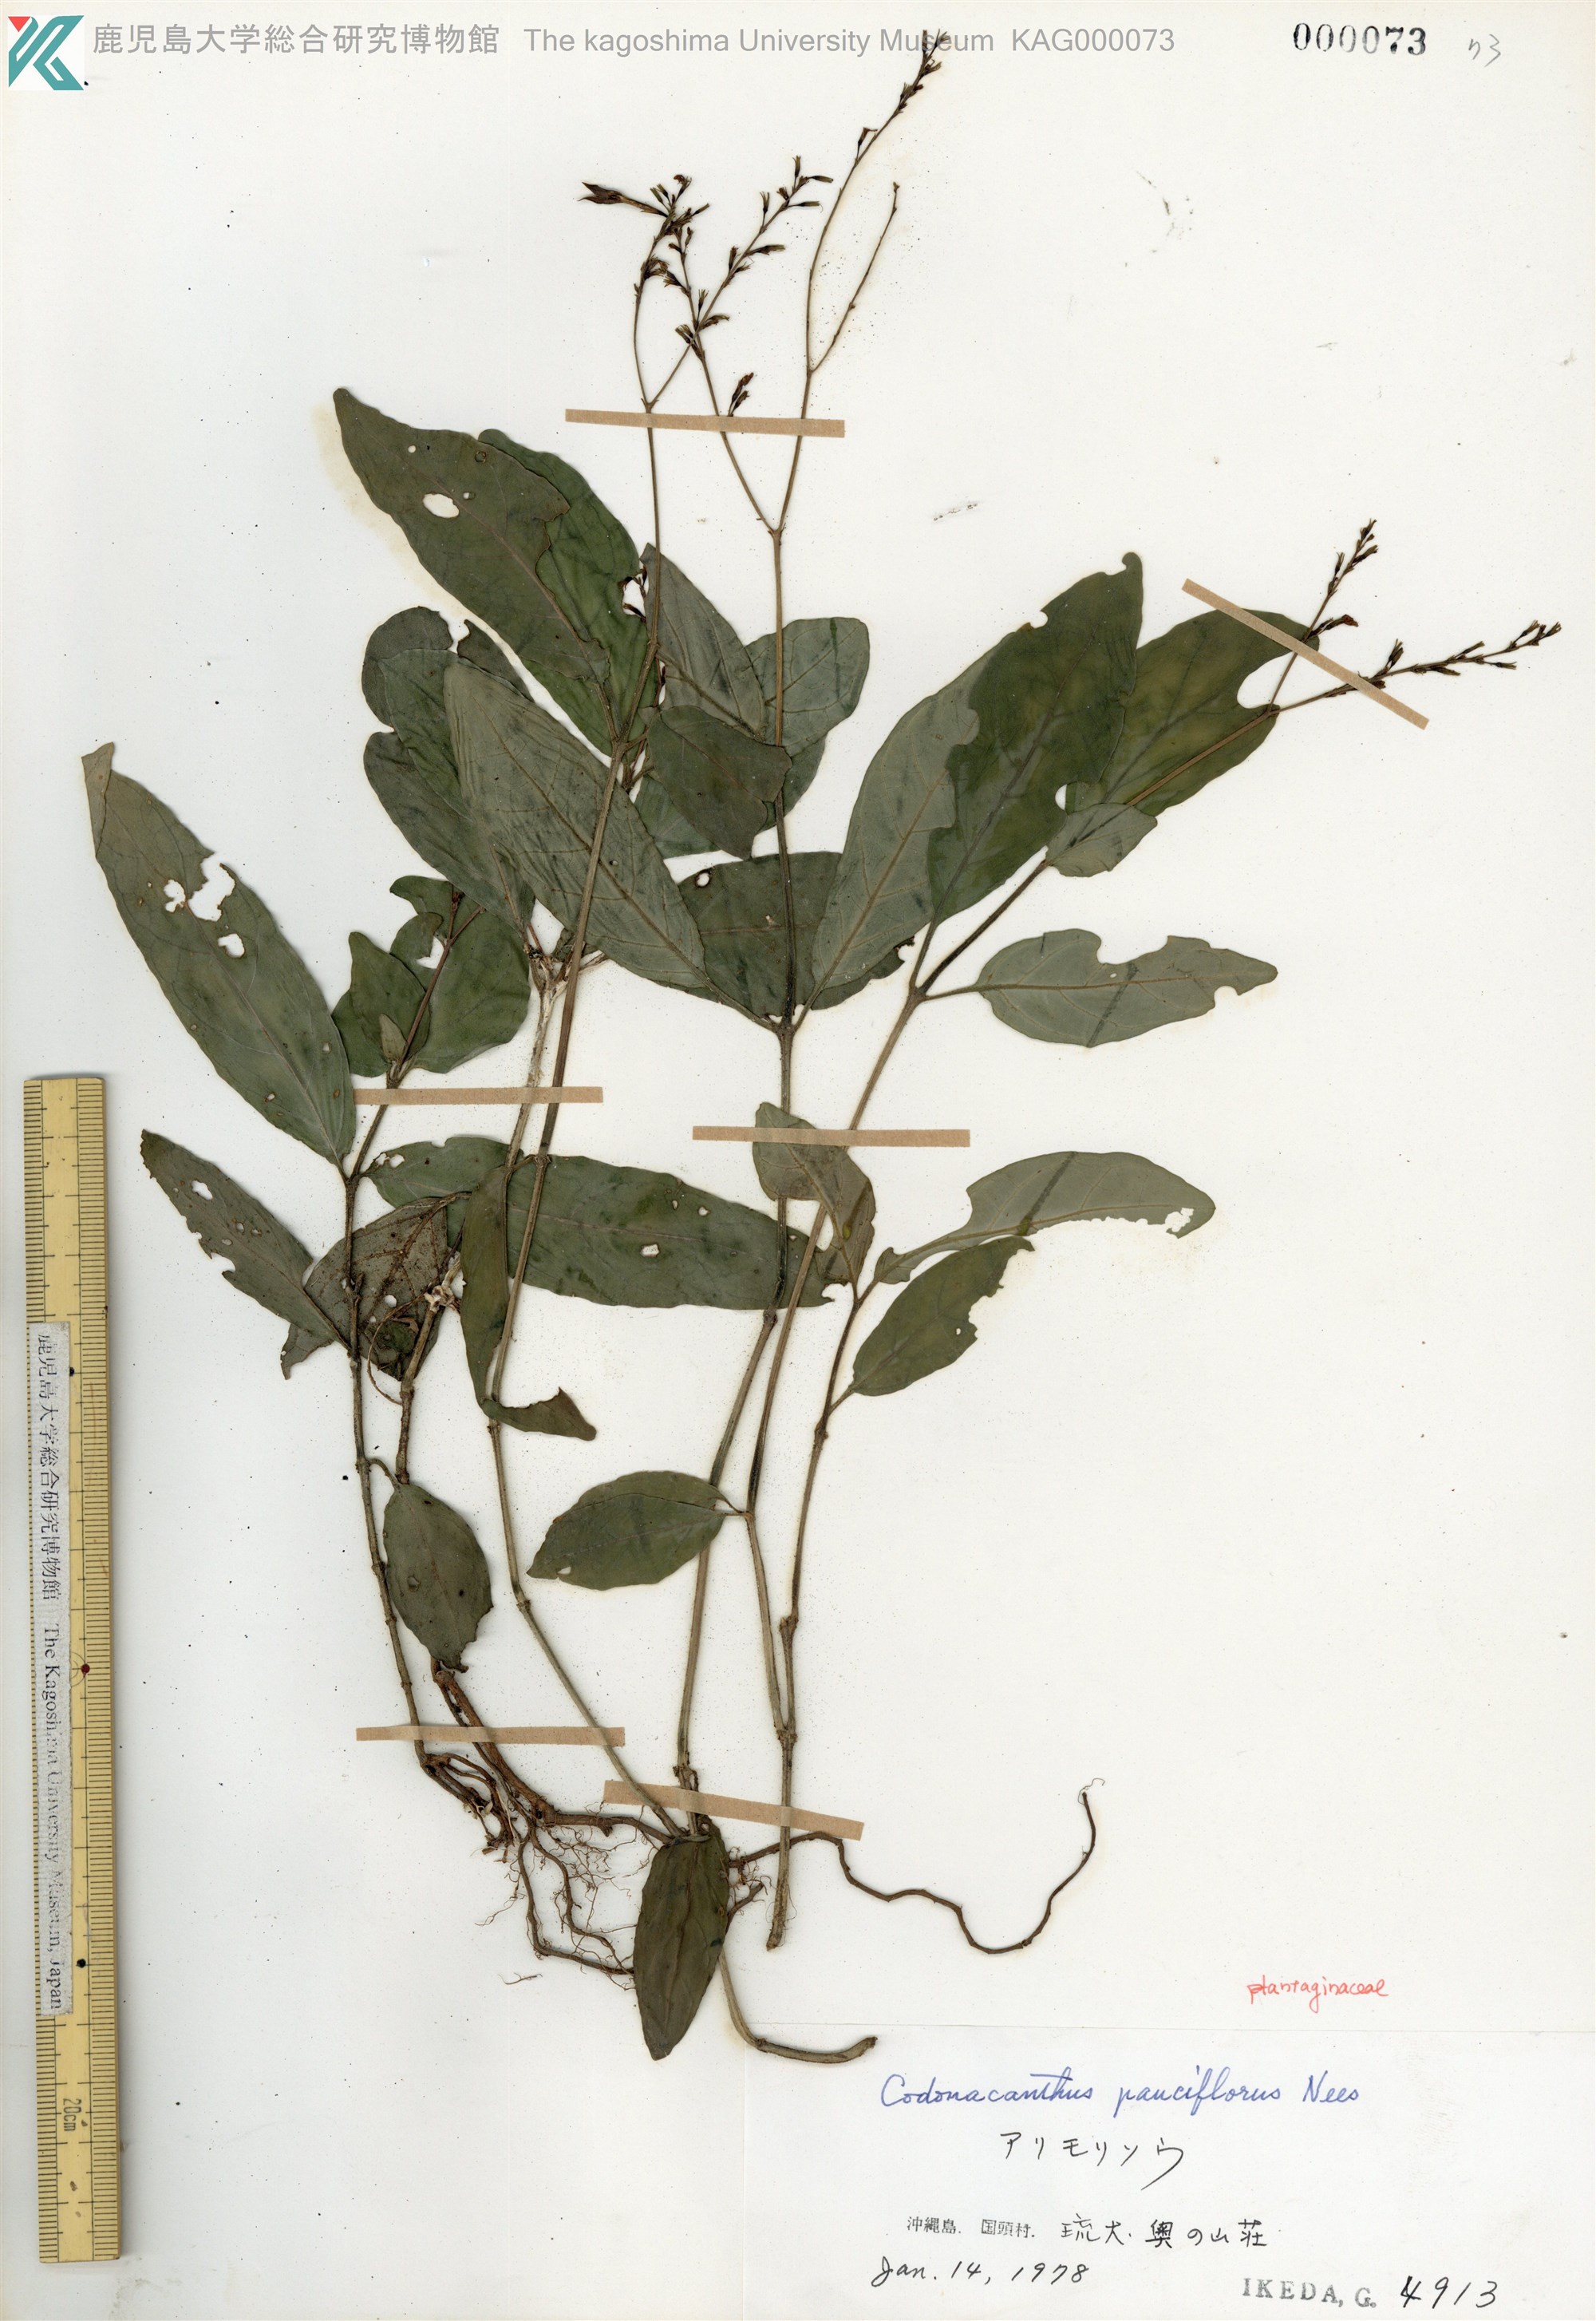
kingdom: Plantae
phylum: Tracheophyta
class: Magnoliopsida
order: Lamiales
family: Acanthaceae
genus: Codonacanthus
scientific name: Codonacanthus pauciflorus
